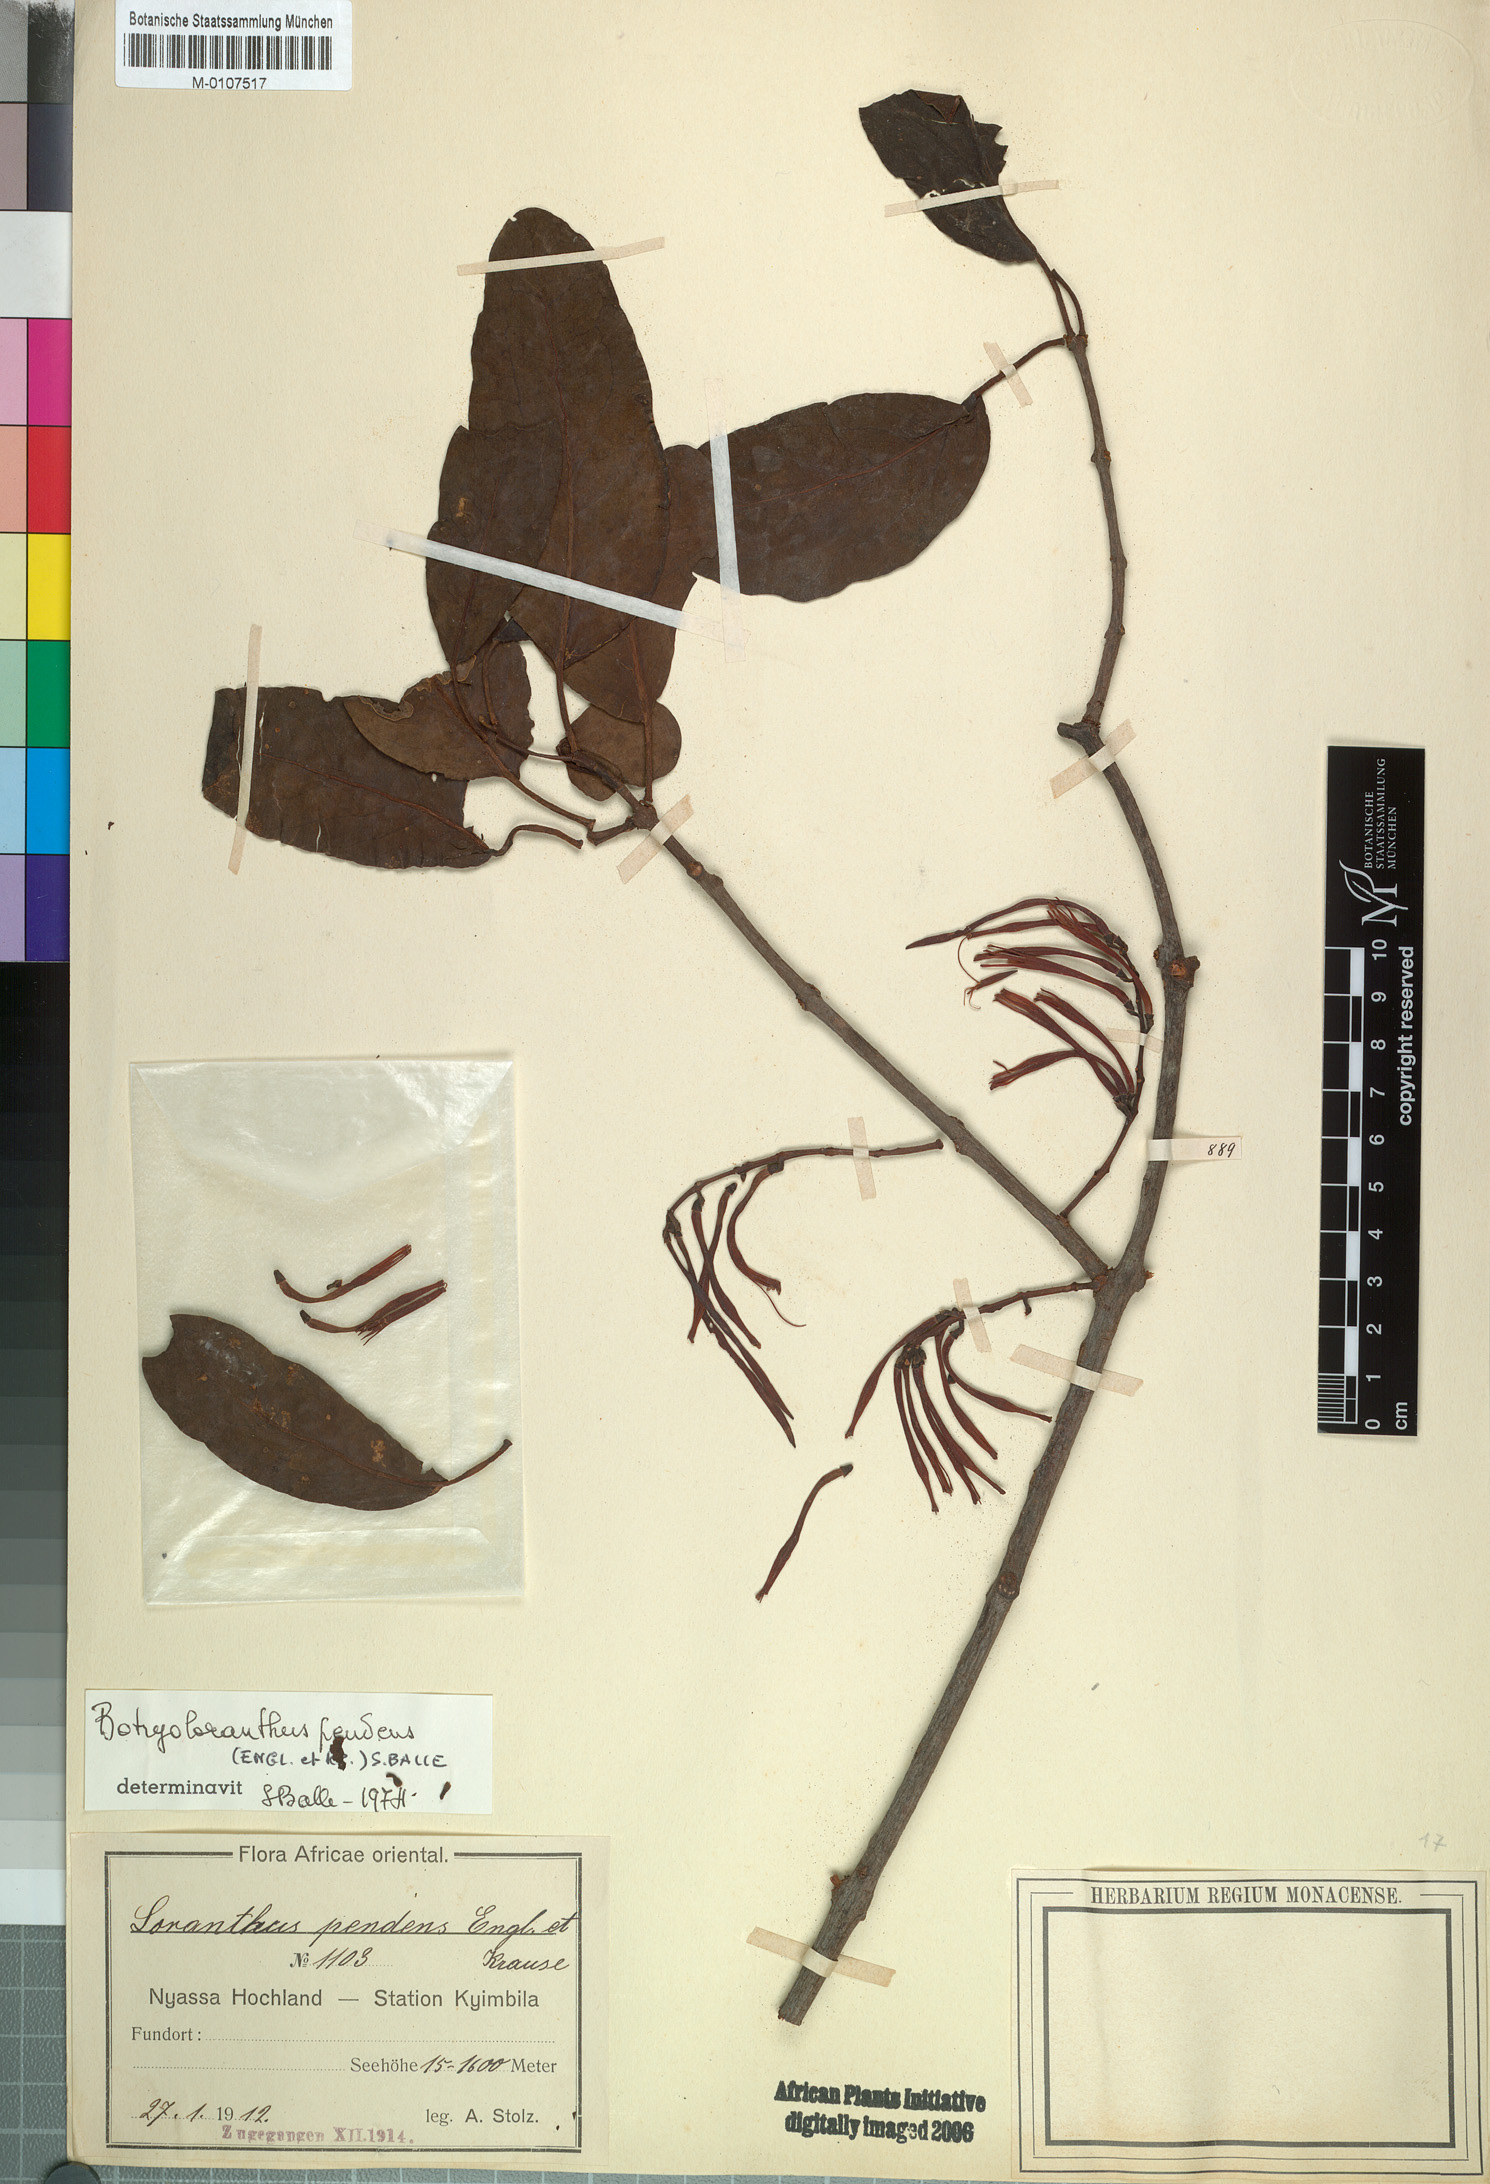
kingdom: Plantae
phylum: Tracheophyta
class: Magnoliopsida
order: Santalales
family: Loranthaceae
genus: Oedina
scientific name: Oedina pendens
